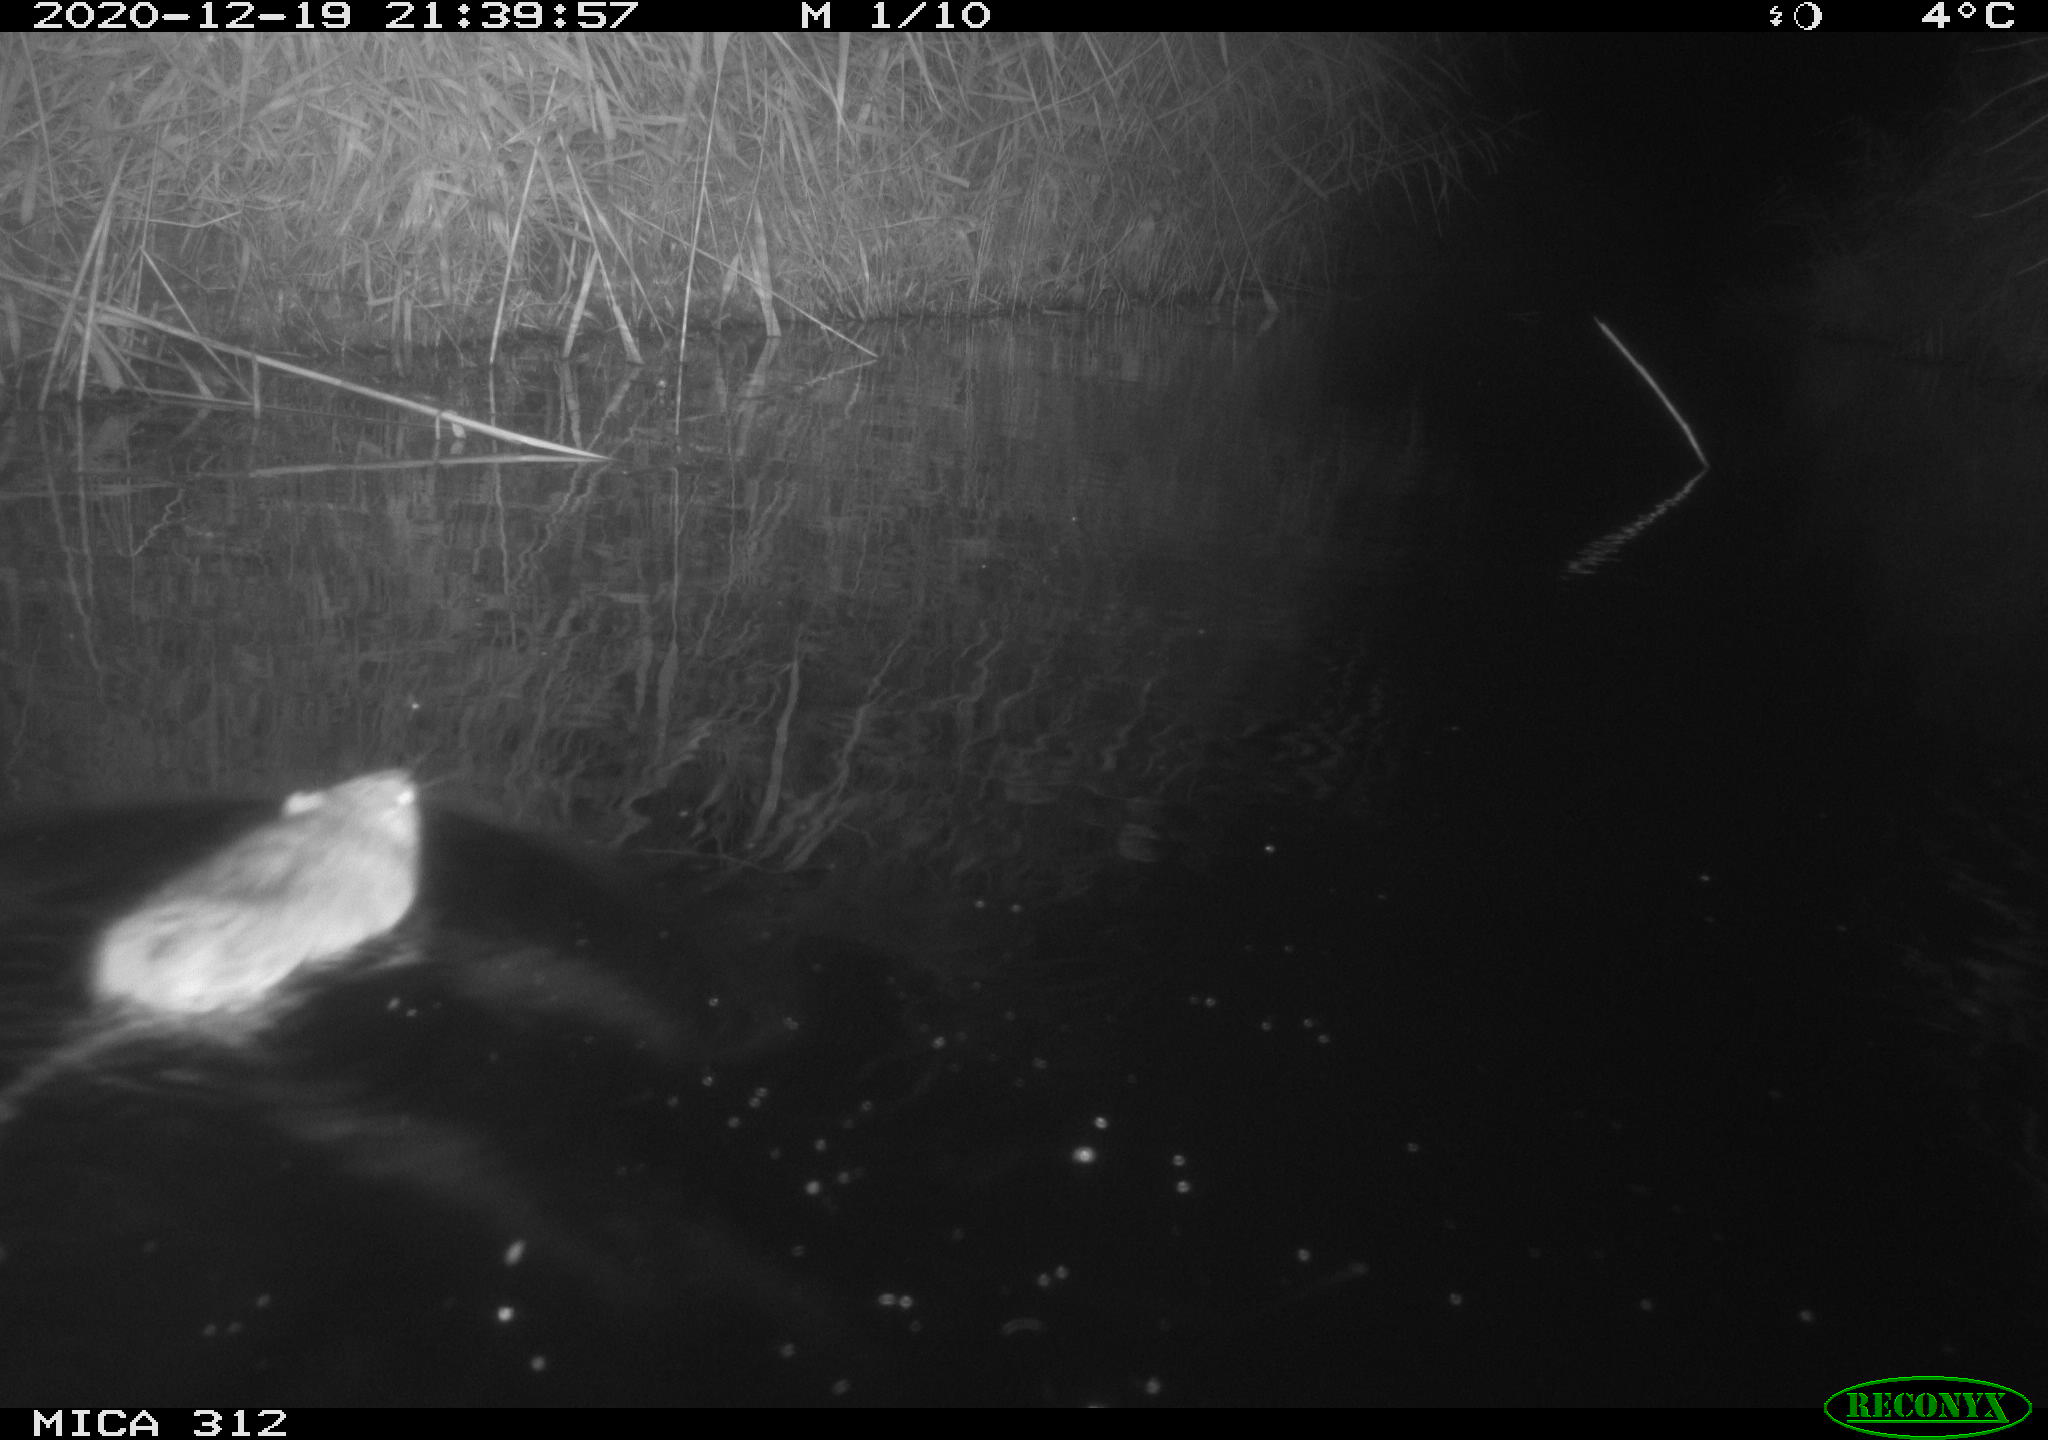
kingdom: Animalia
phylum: Chordata
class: Mammalia
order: Rodentia
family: Muridae
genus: Rattus
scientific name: Rattus norvegicus
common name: Brown rat
